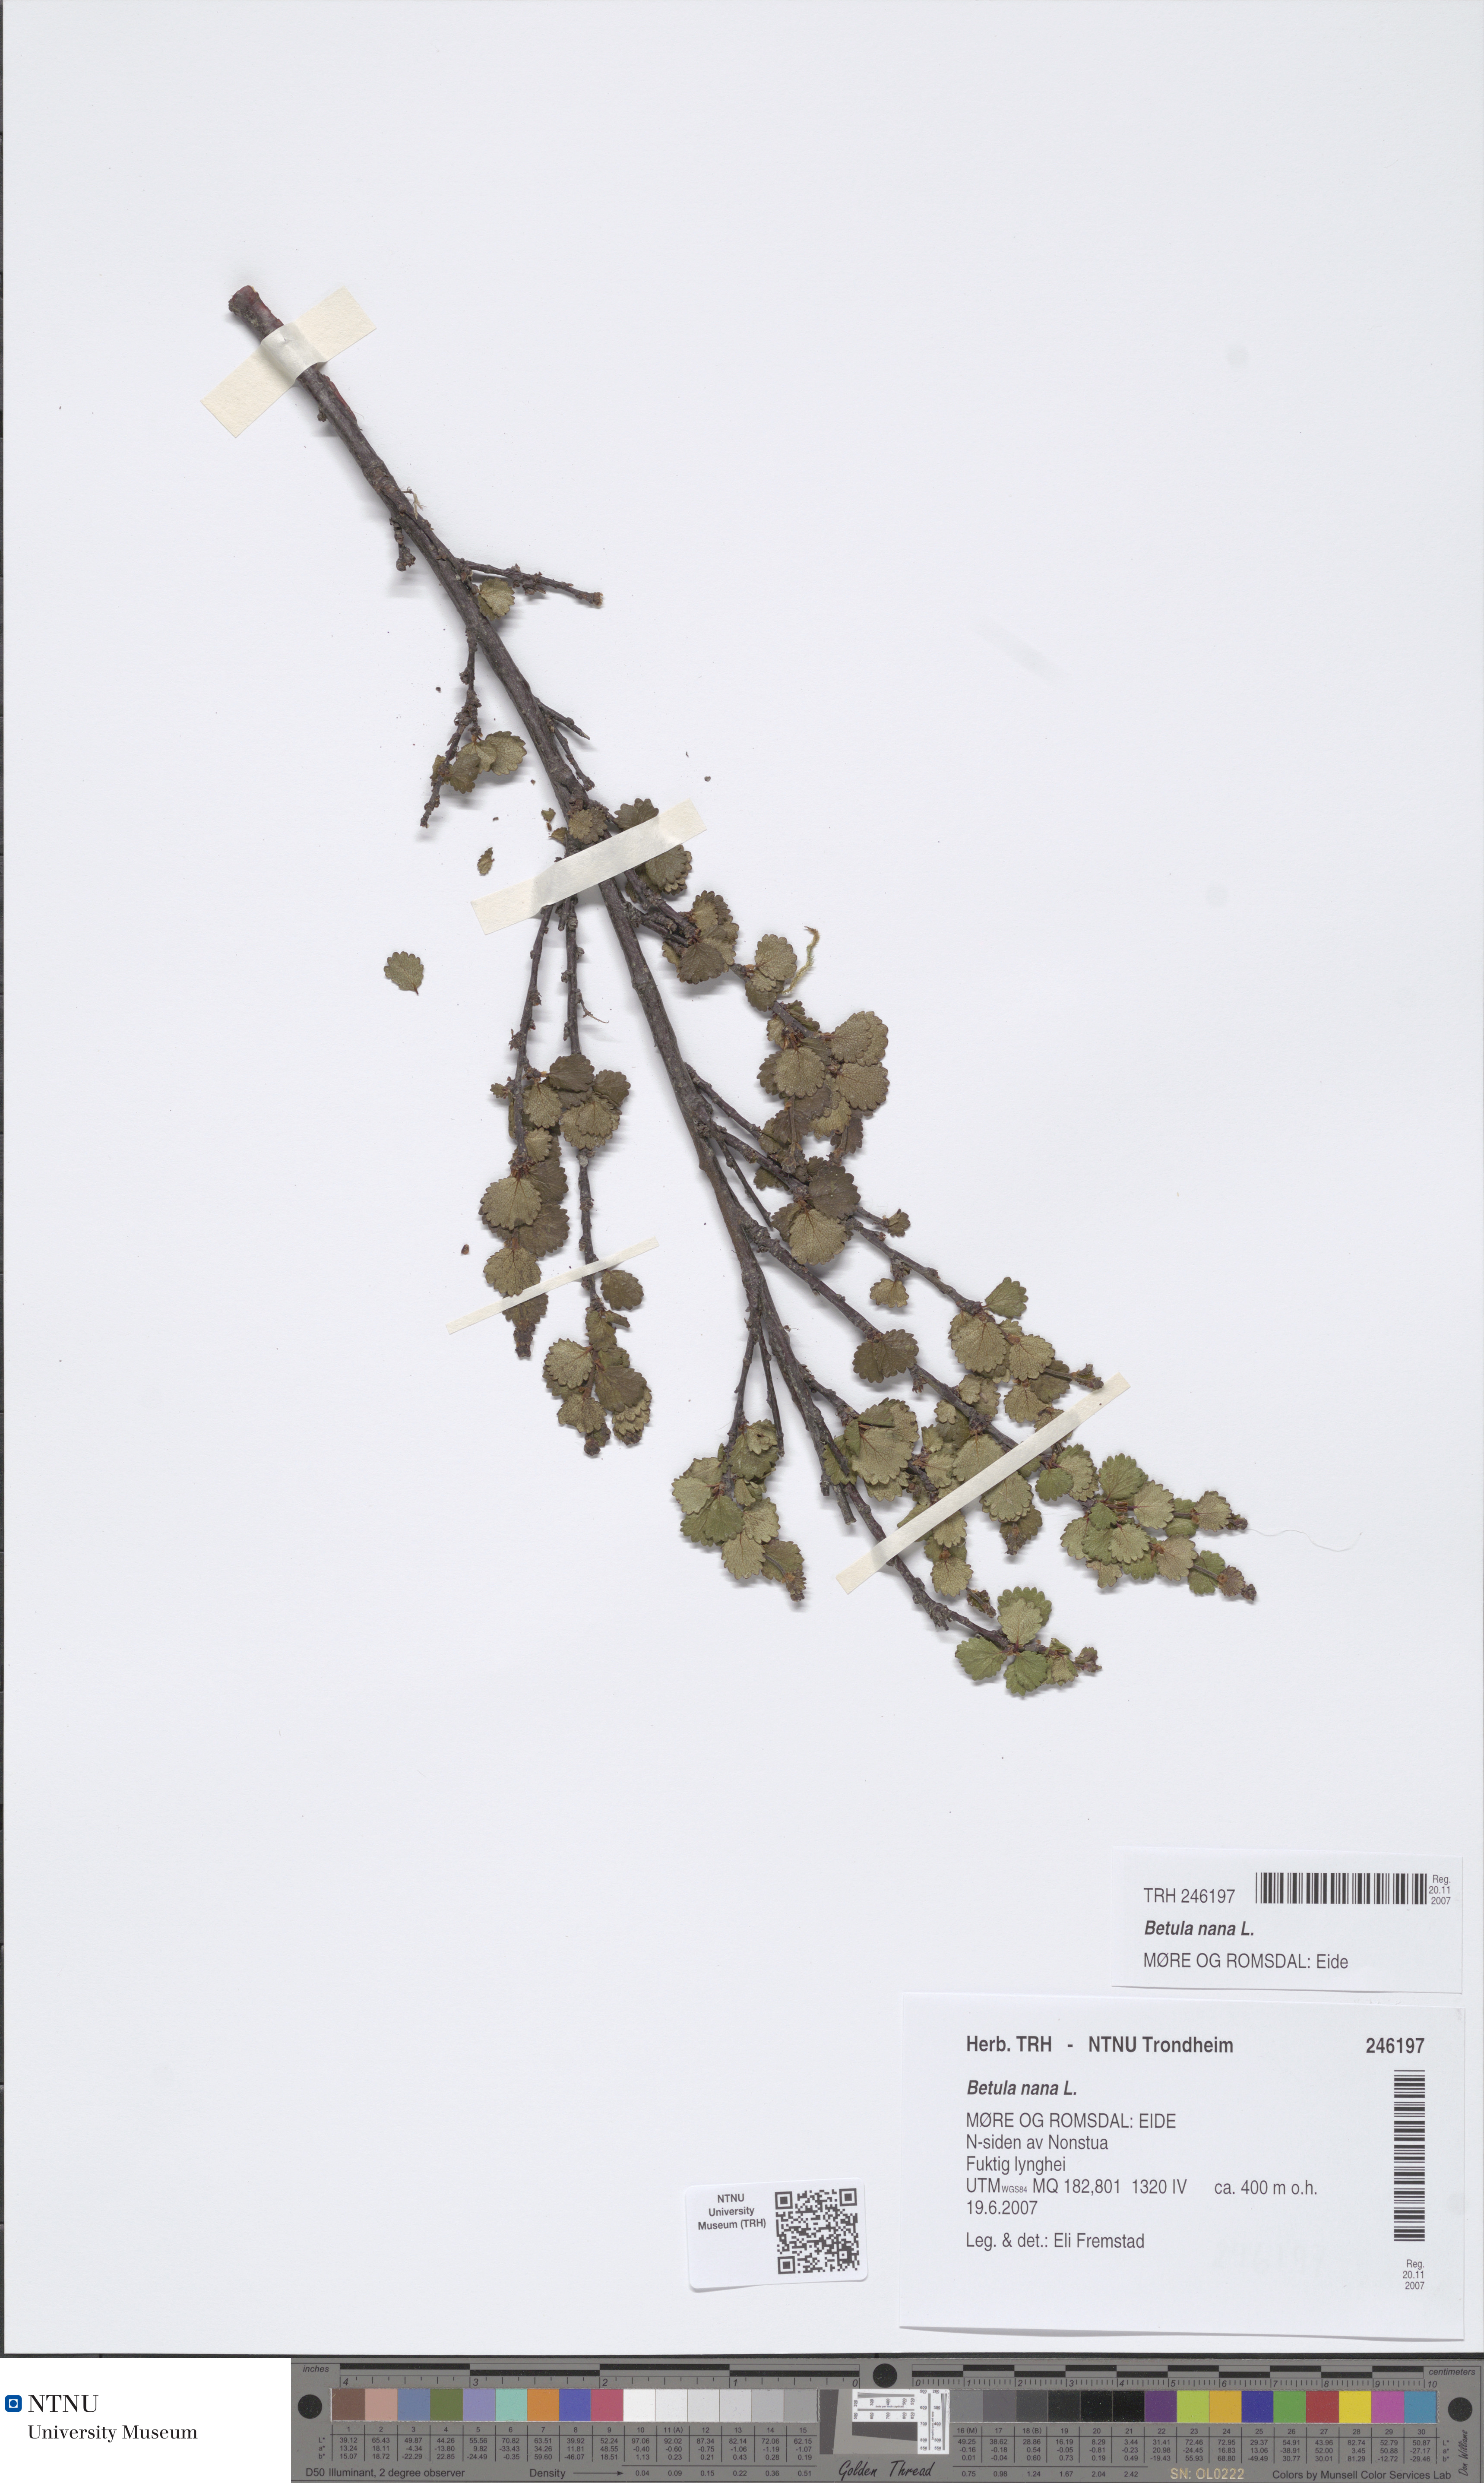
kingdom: Plantae
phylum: Tracheophyta
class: Magnoliopsida
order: Fagales
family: Betulaceae
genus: Betula
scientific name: Betula nana
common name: Arctic dwarf birch
